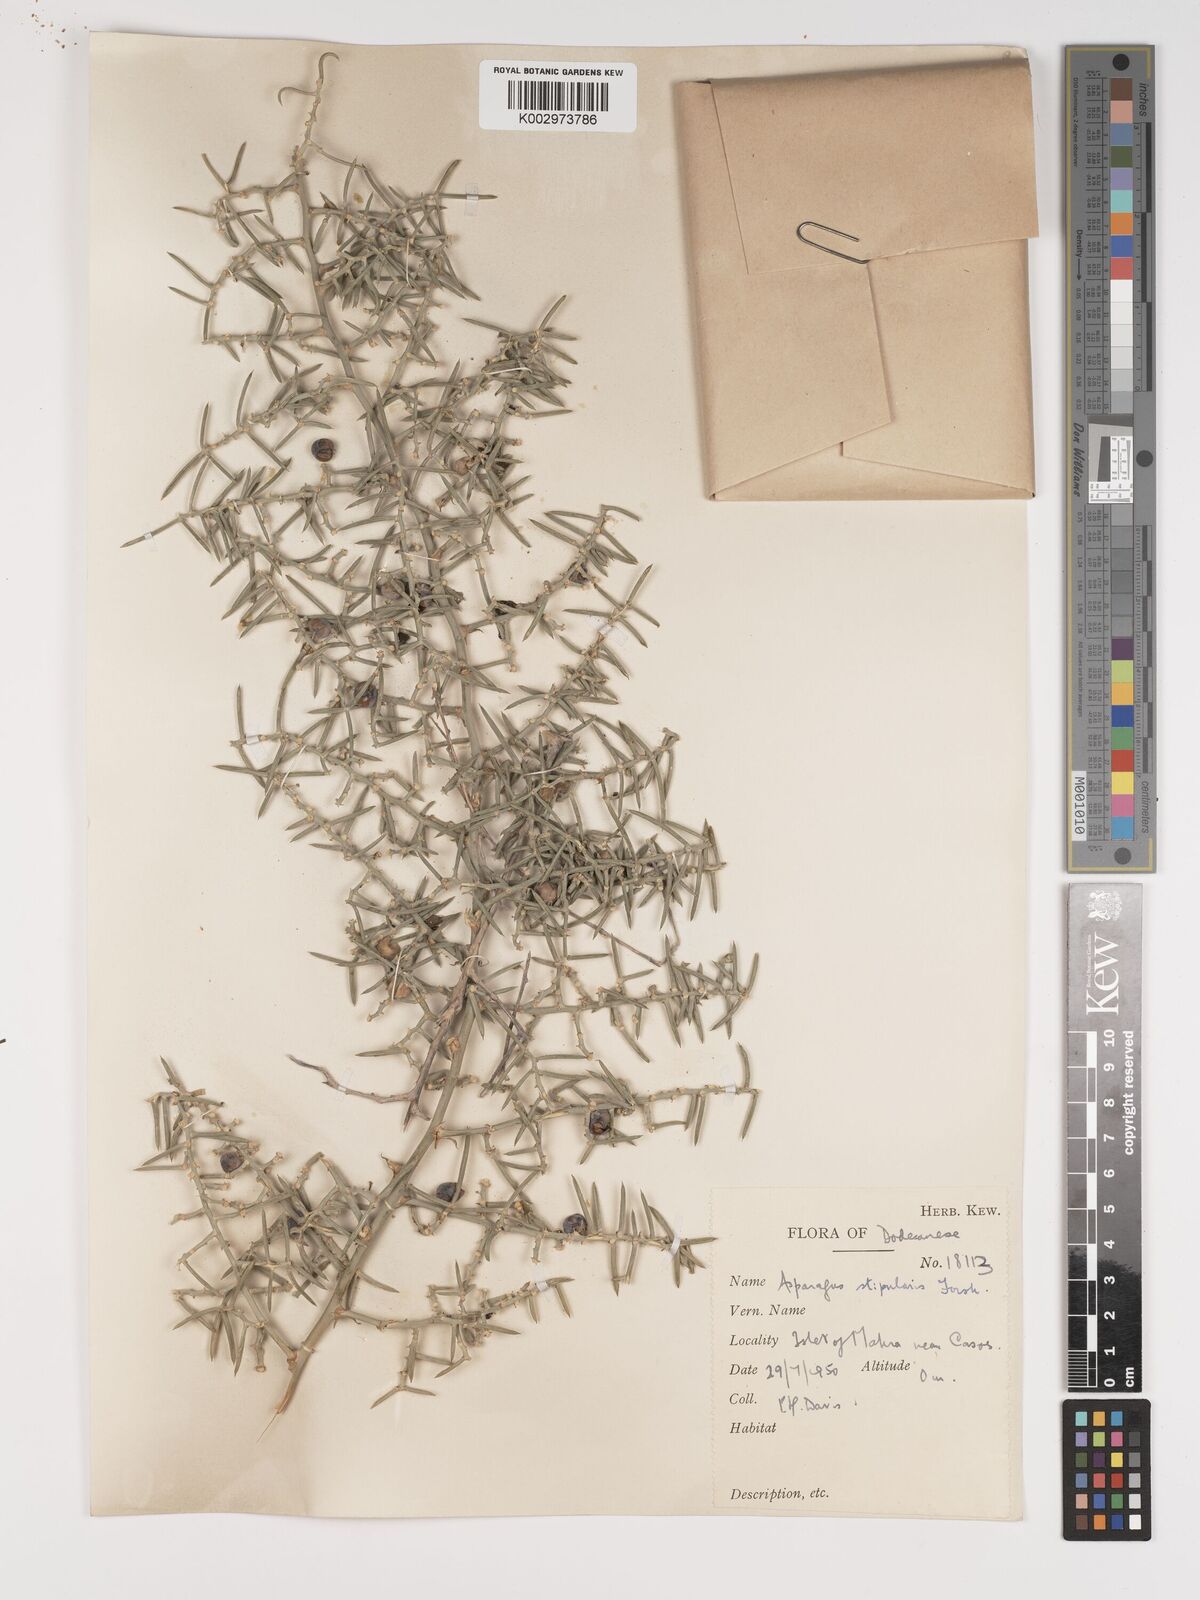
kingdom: Plantae
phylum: Tracheophyta
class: Liliopsida
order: Asparagales
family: Asparagaceae
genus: Asparagus
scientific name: Asparagus horridus
